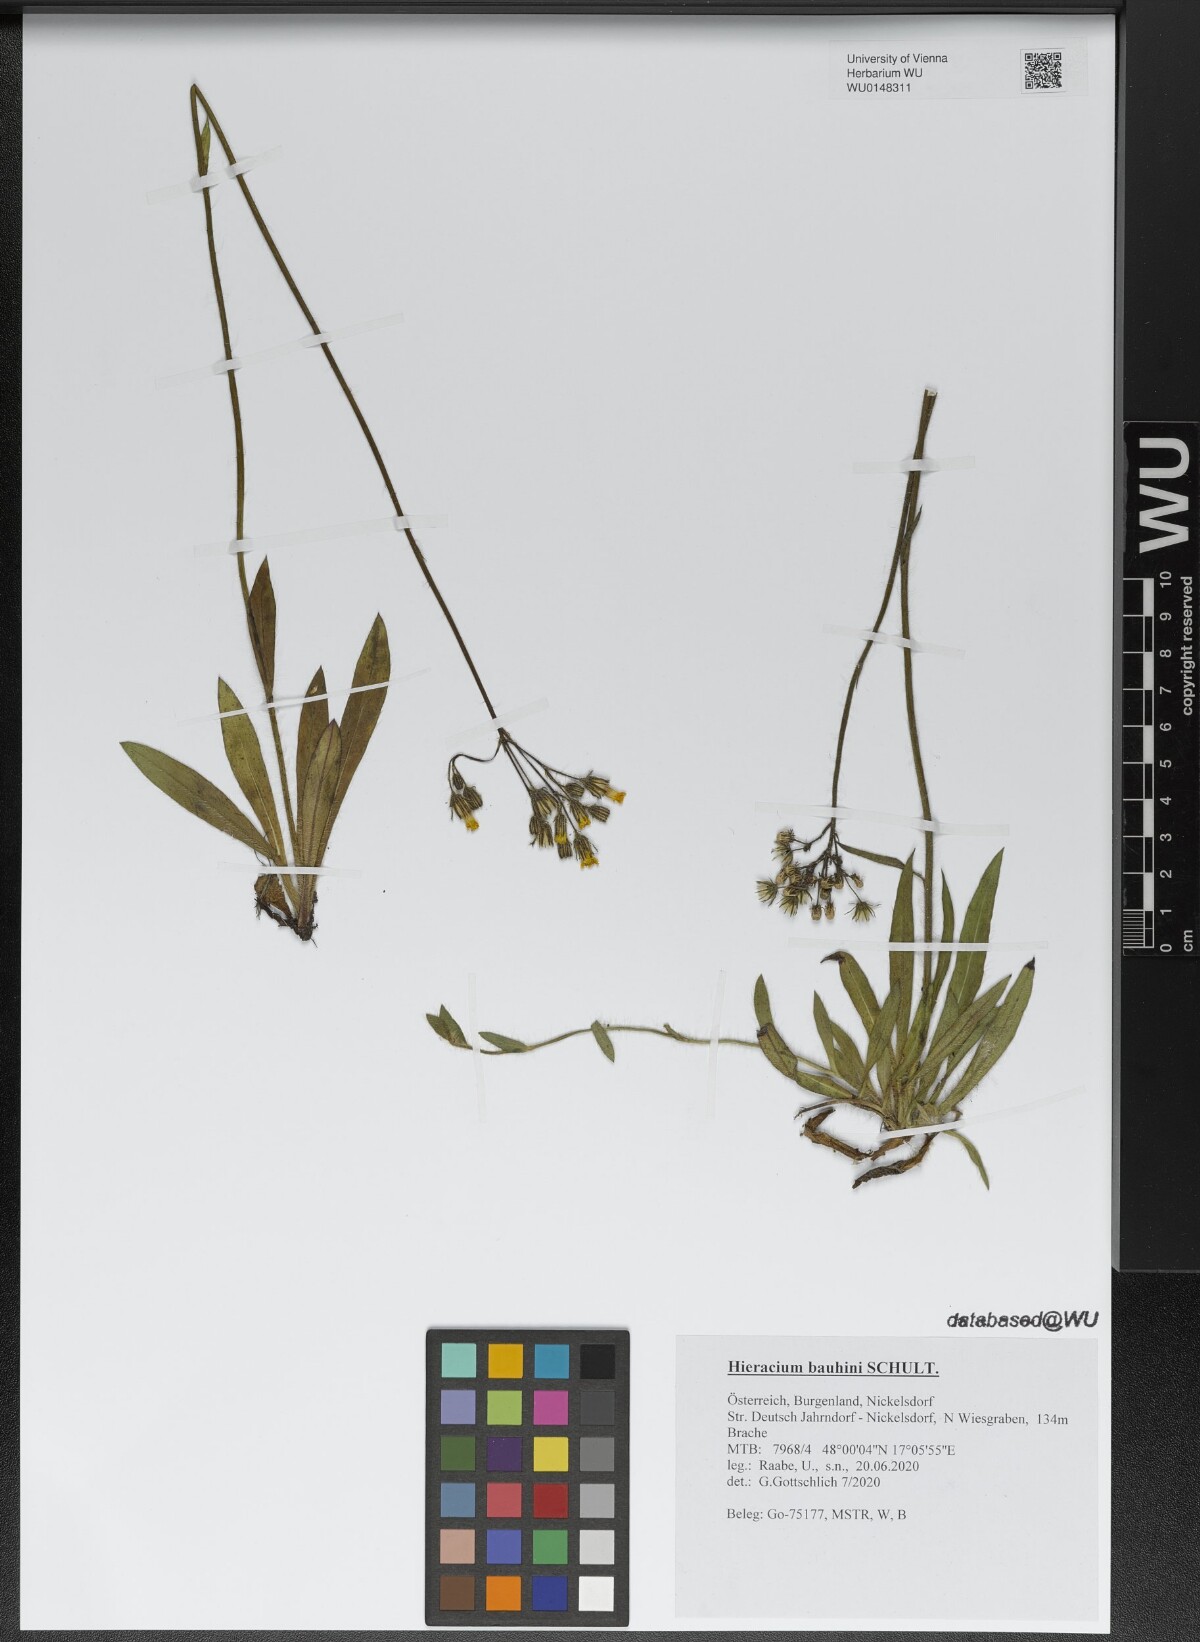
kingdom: Plantae
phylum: Tracheophyta
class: Magnoliopsida
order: Asterales
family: Asteraceae
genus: Pilosella
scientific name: Pilosella bauhini
